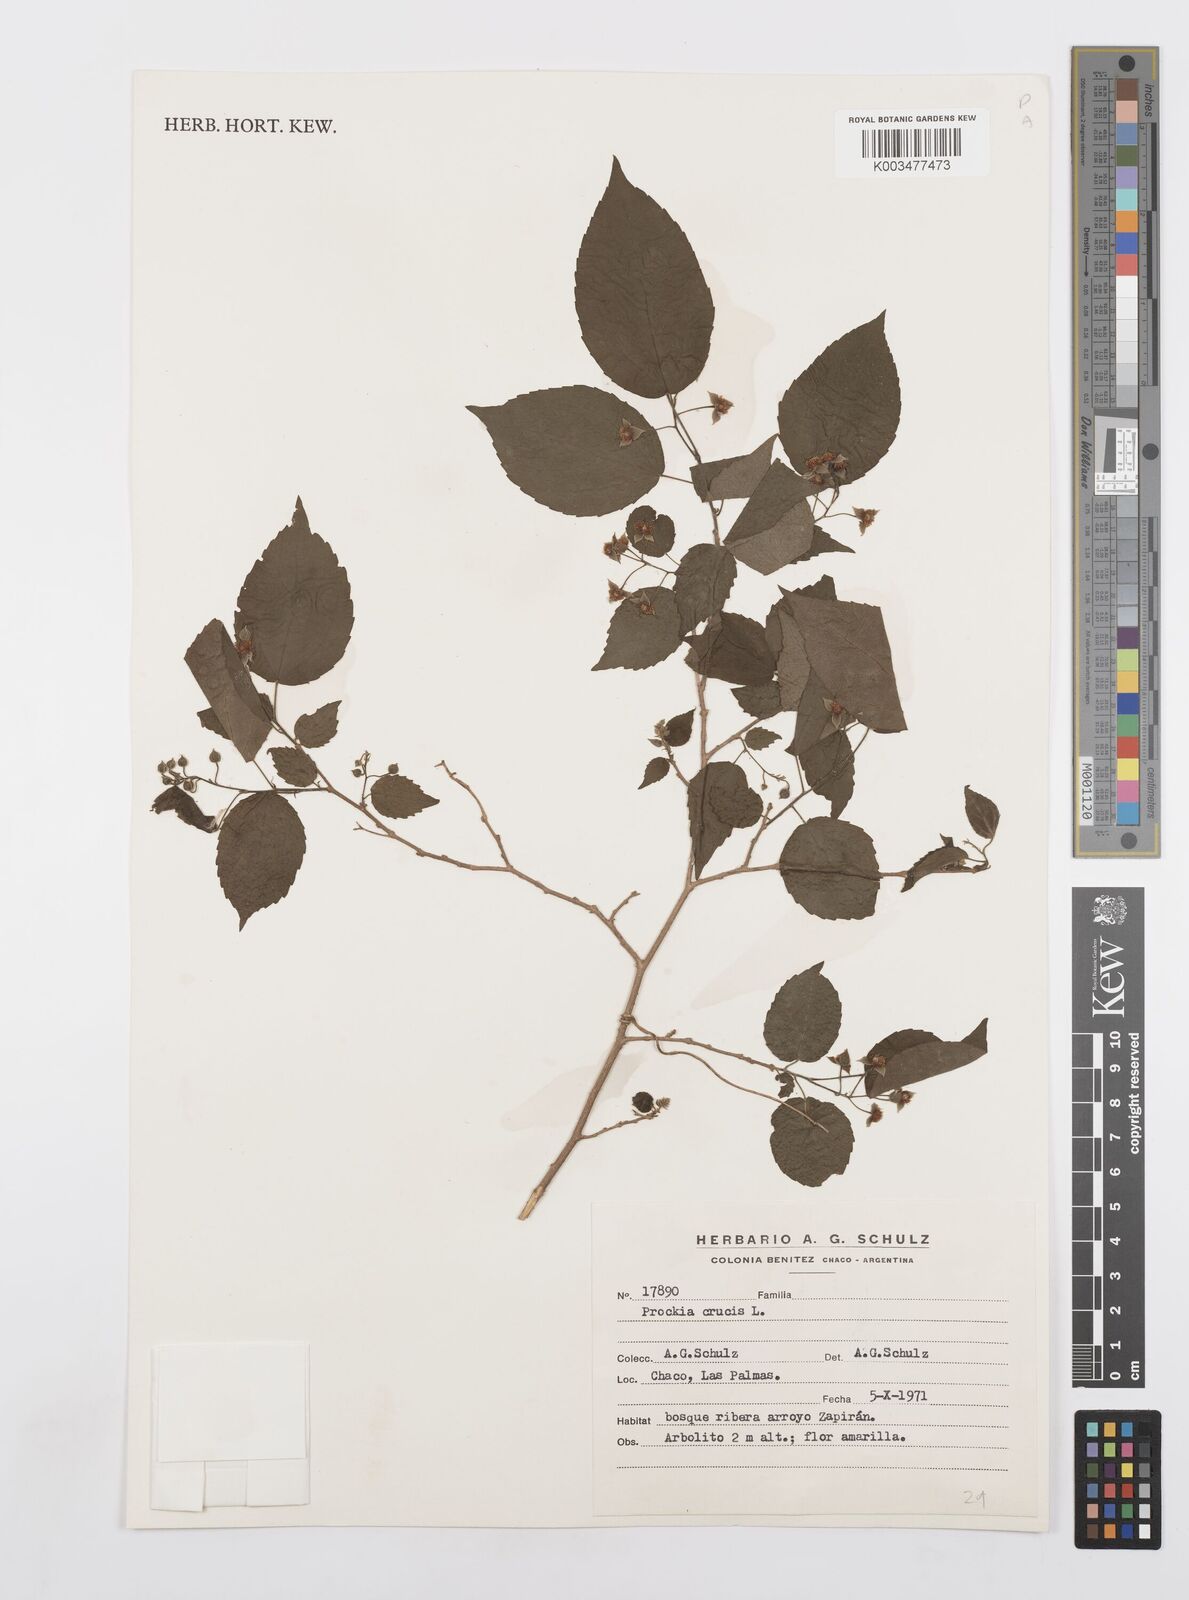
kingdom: Plantae
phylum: Tracheophyta
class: Magnoliopsida
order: Malpighiales
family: Salicaceae
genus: Prockia
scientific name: Prockia crucis
